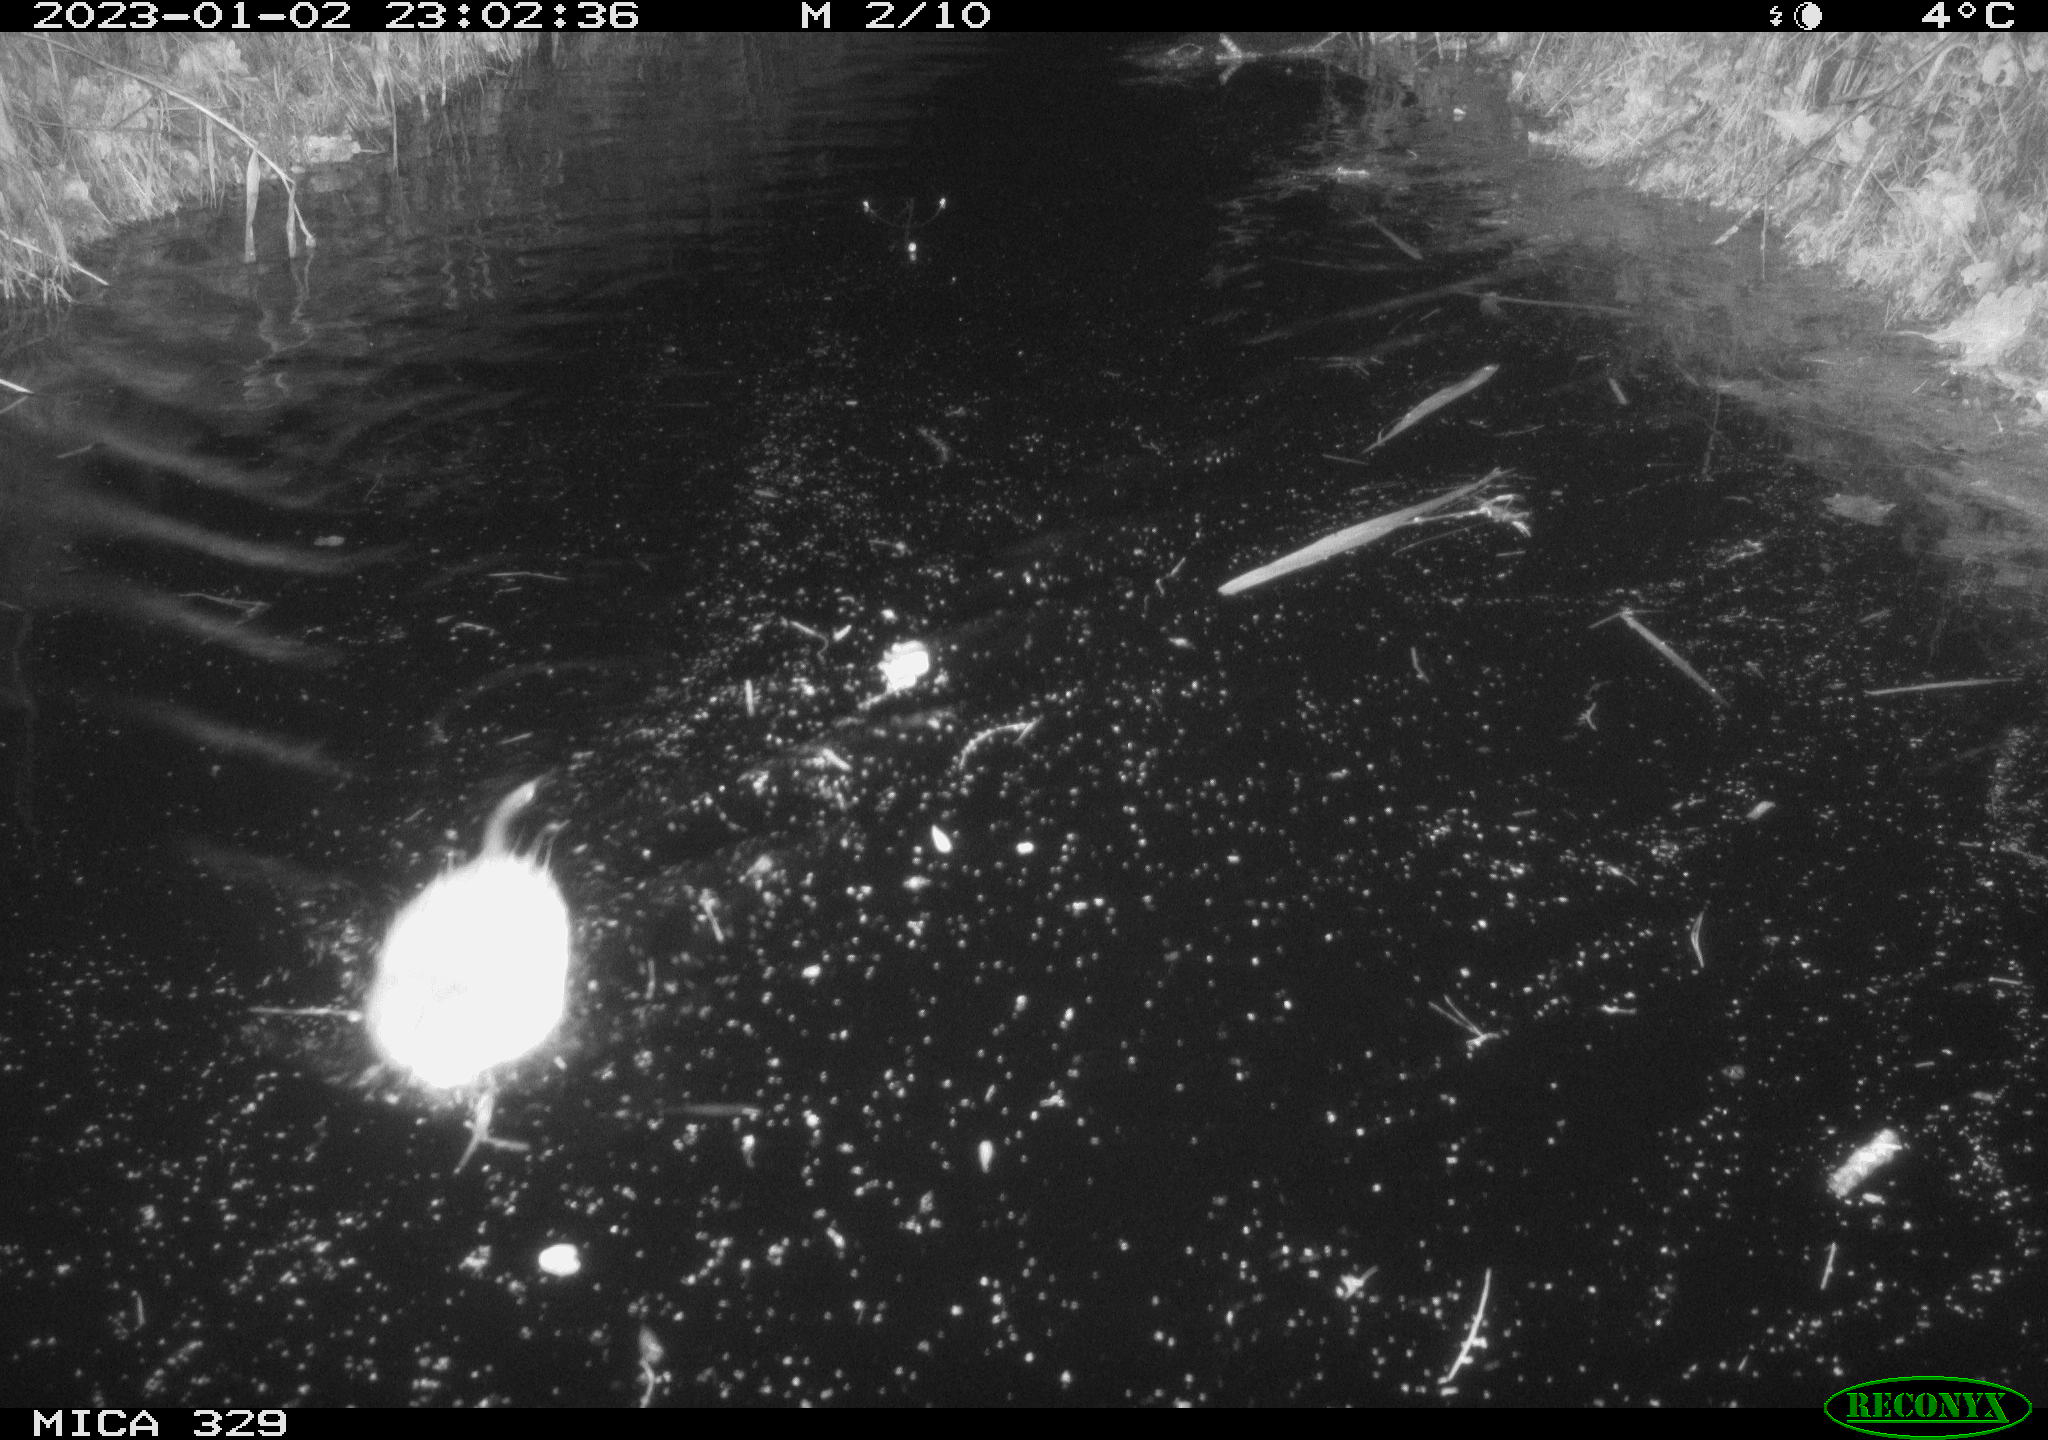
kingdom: Animalia
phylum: Chordata
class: Mammalia
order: Rodentia
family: Cricetidae
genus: Ondatra
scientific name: Ondatra zibethicus
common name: Muskrat
